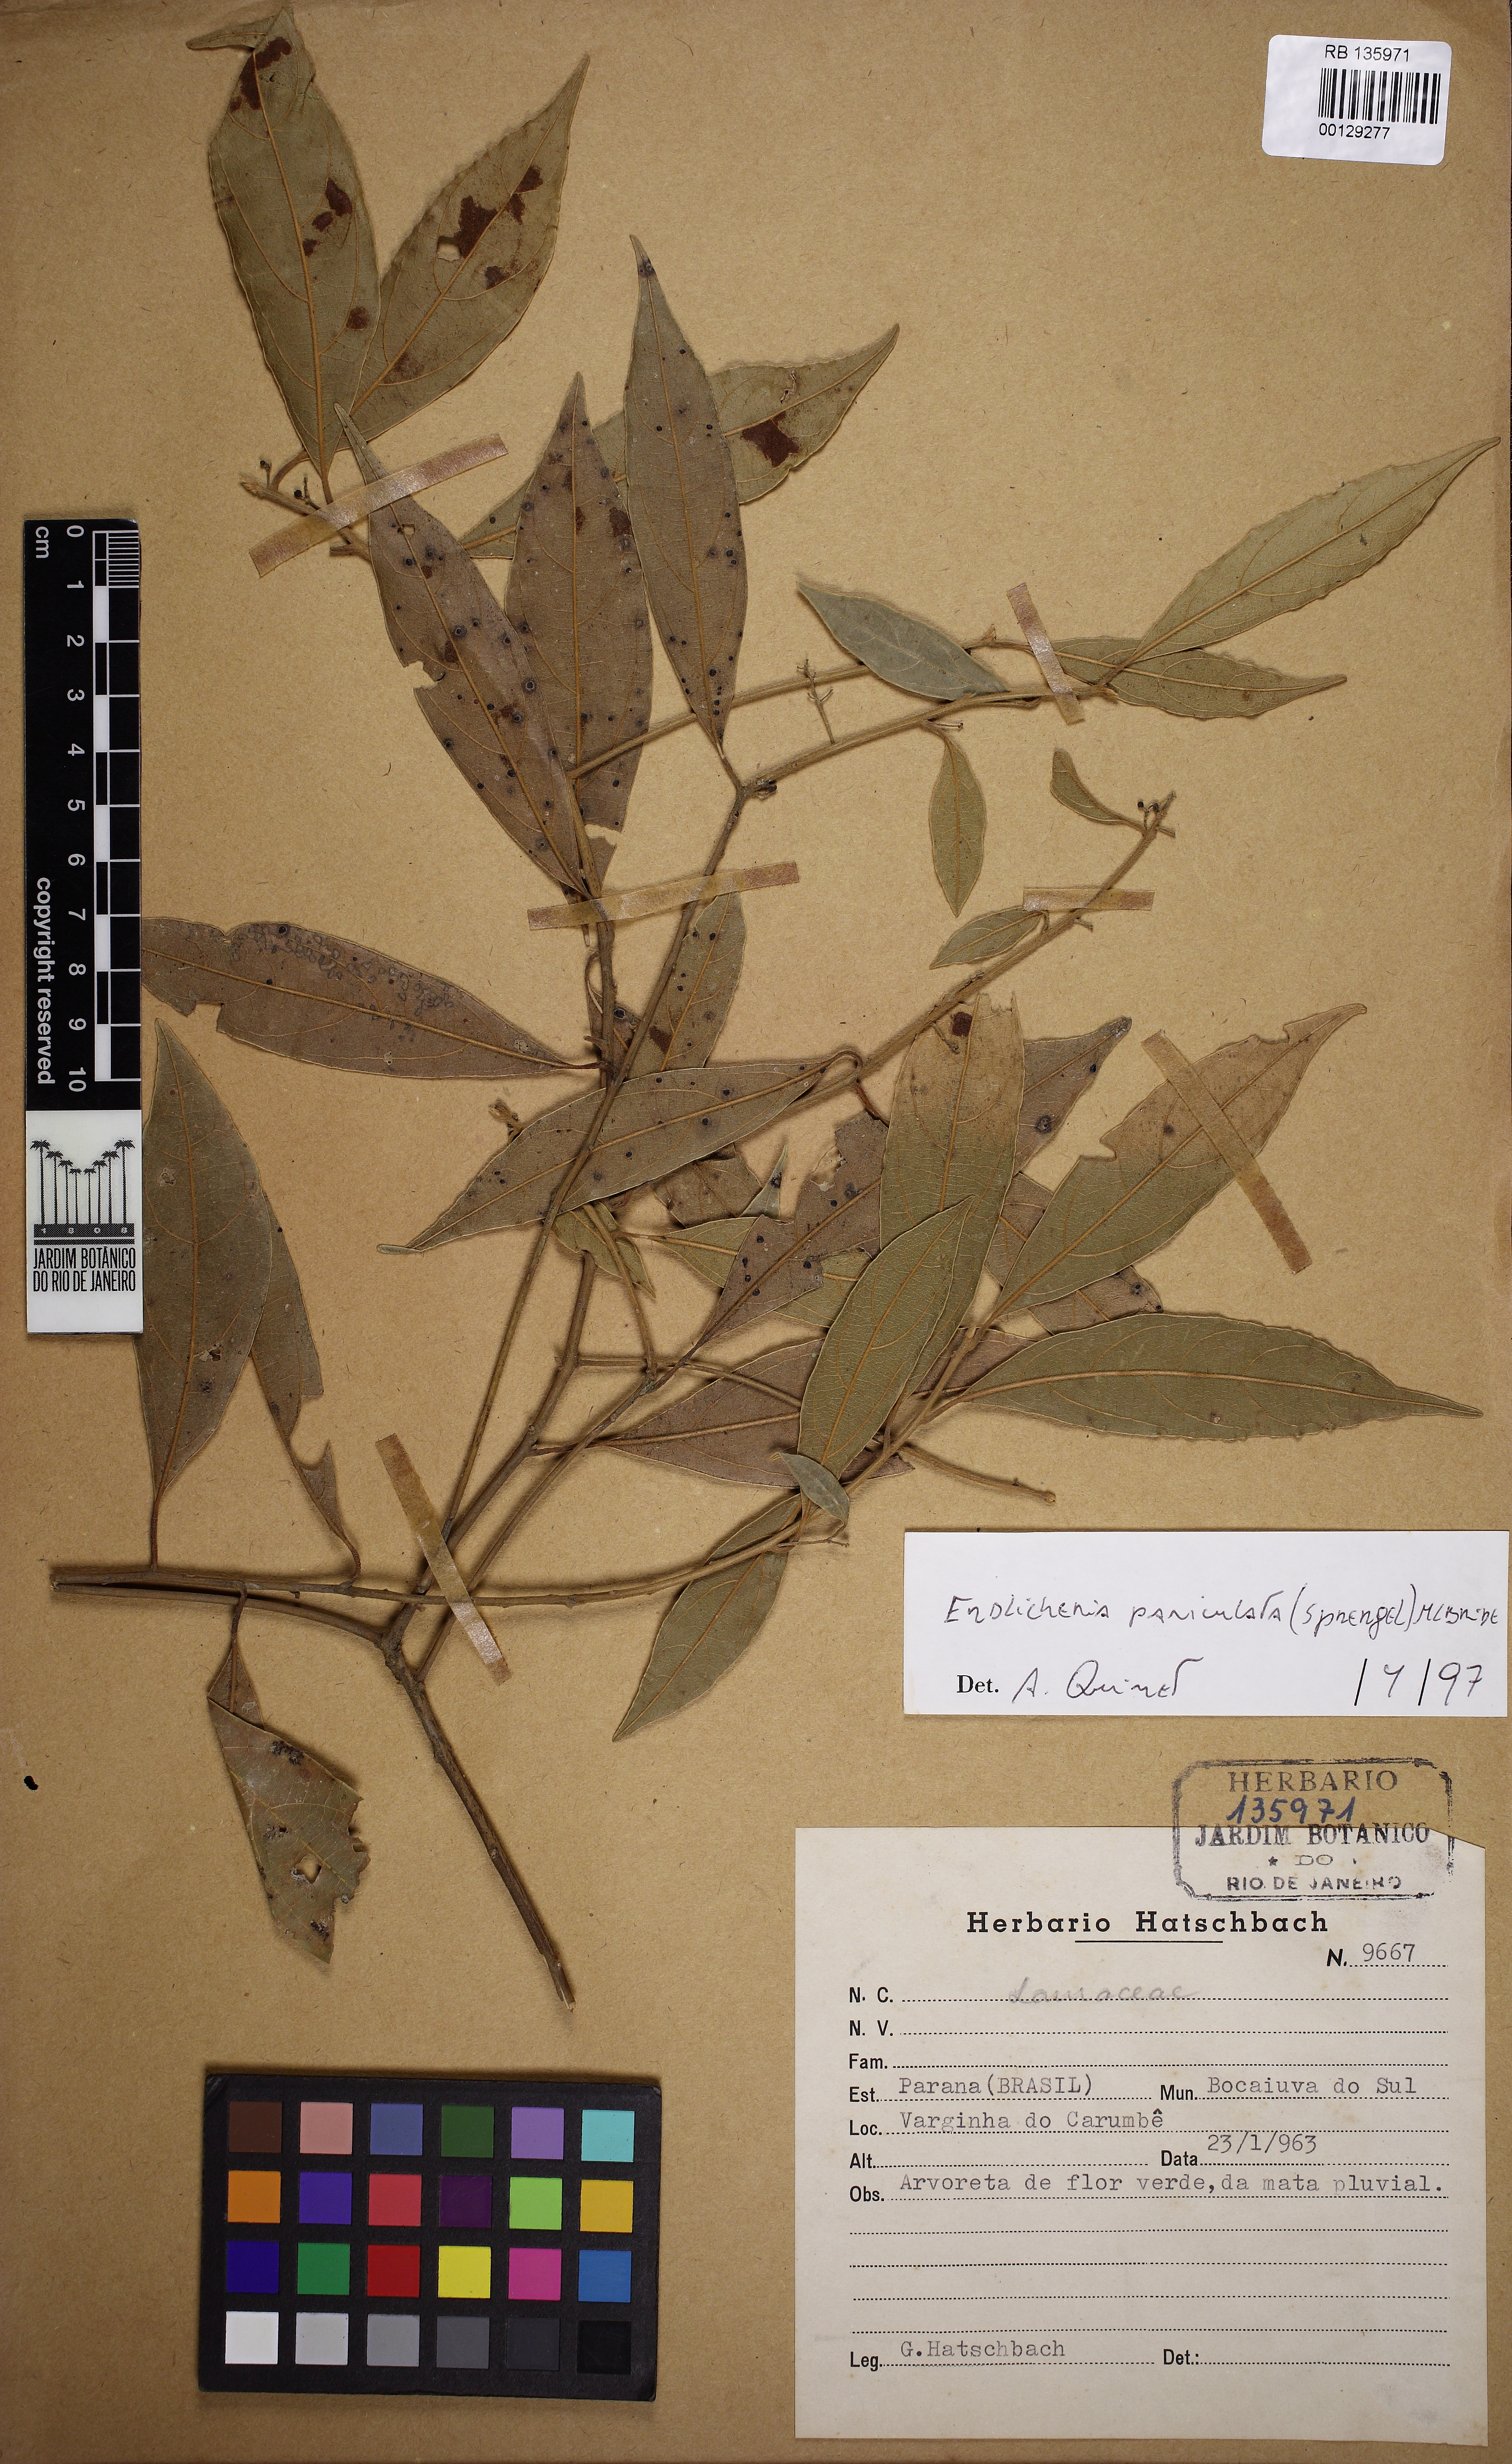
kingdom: Plantae
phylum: Tracheophyta
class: Magnoliopsida
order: Laurales
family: Lauraceae
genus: Endlicheria
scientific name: Endlicheria paniculata
